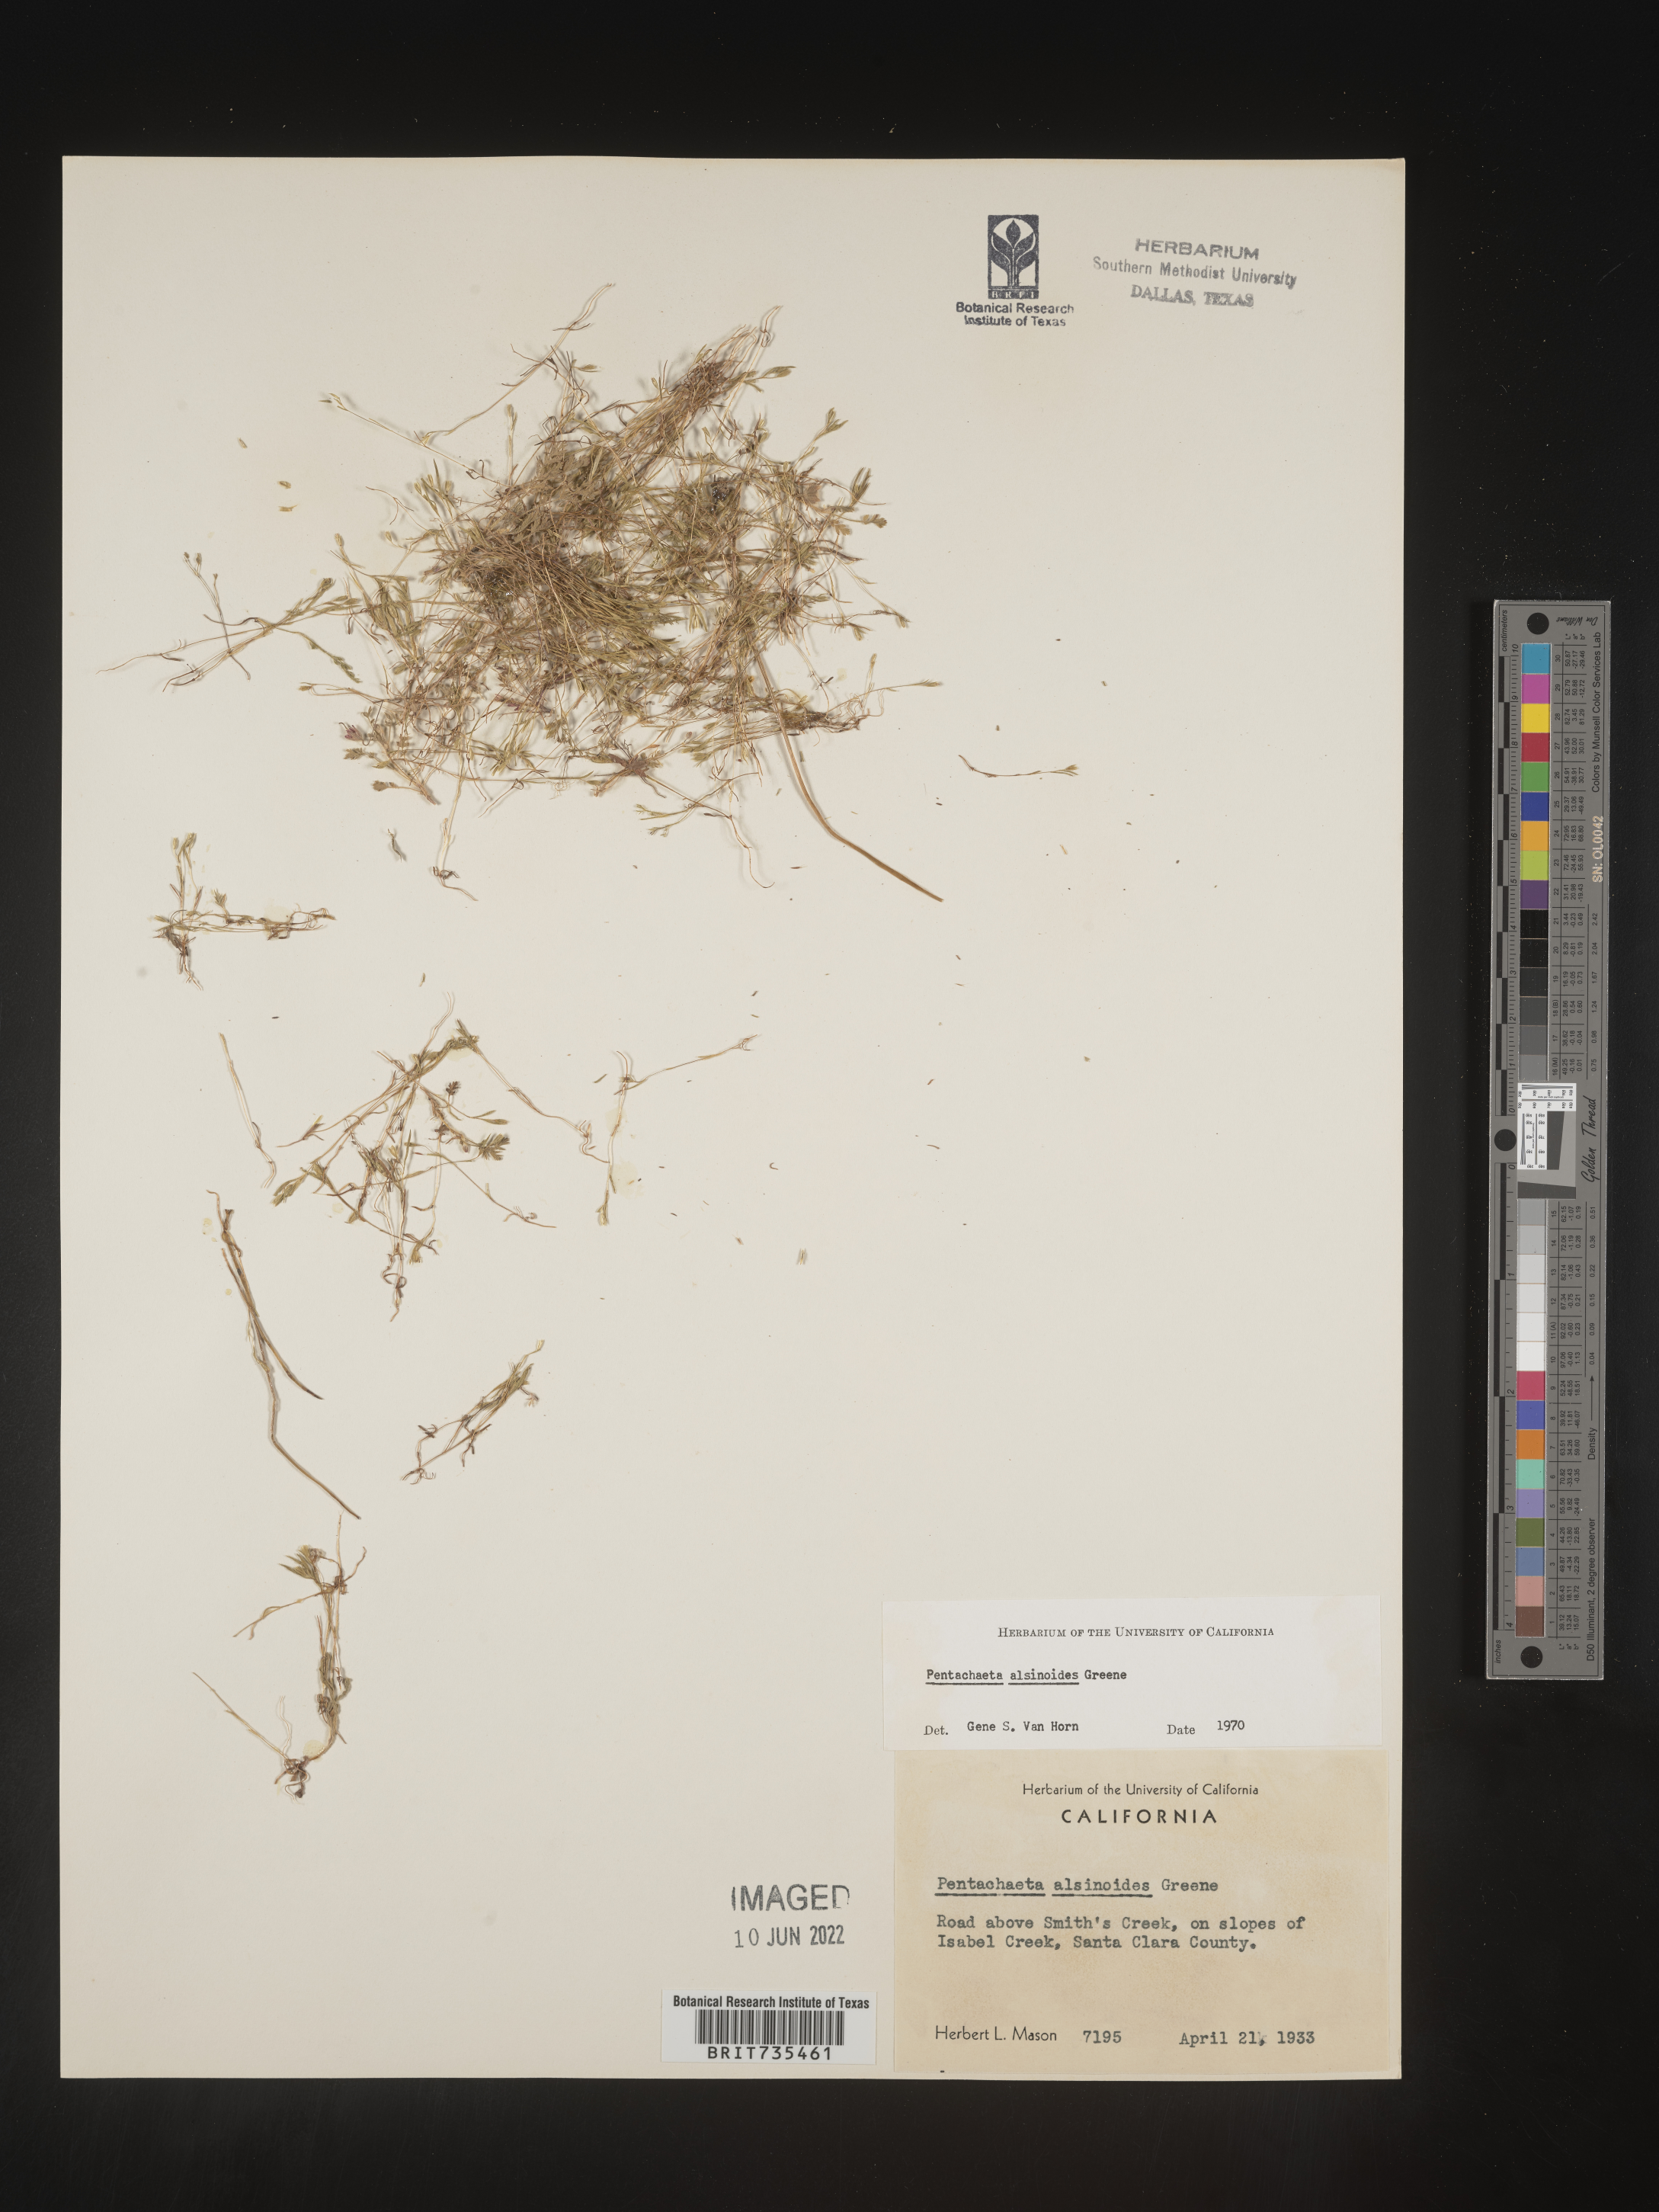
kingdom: Plantae
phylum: Tracheophyta
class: Magnoliopsida
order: Asterales
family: Asteraceae
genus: Pentachaeta
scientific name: Pentachaeta alsinoides
